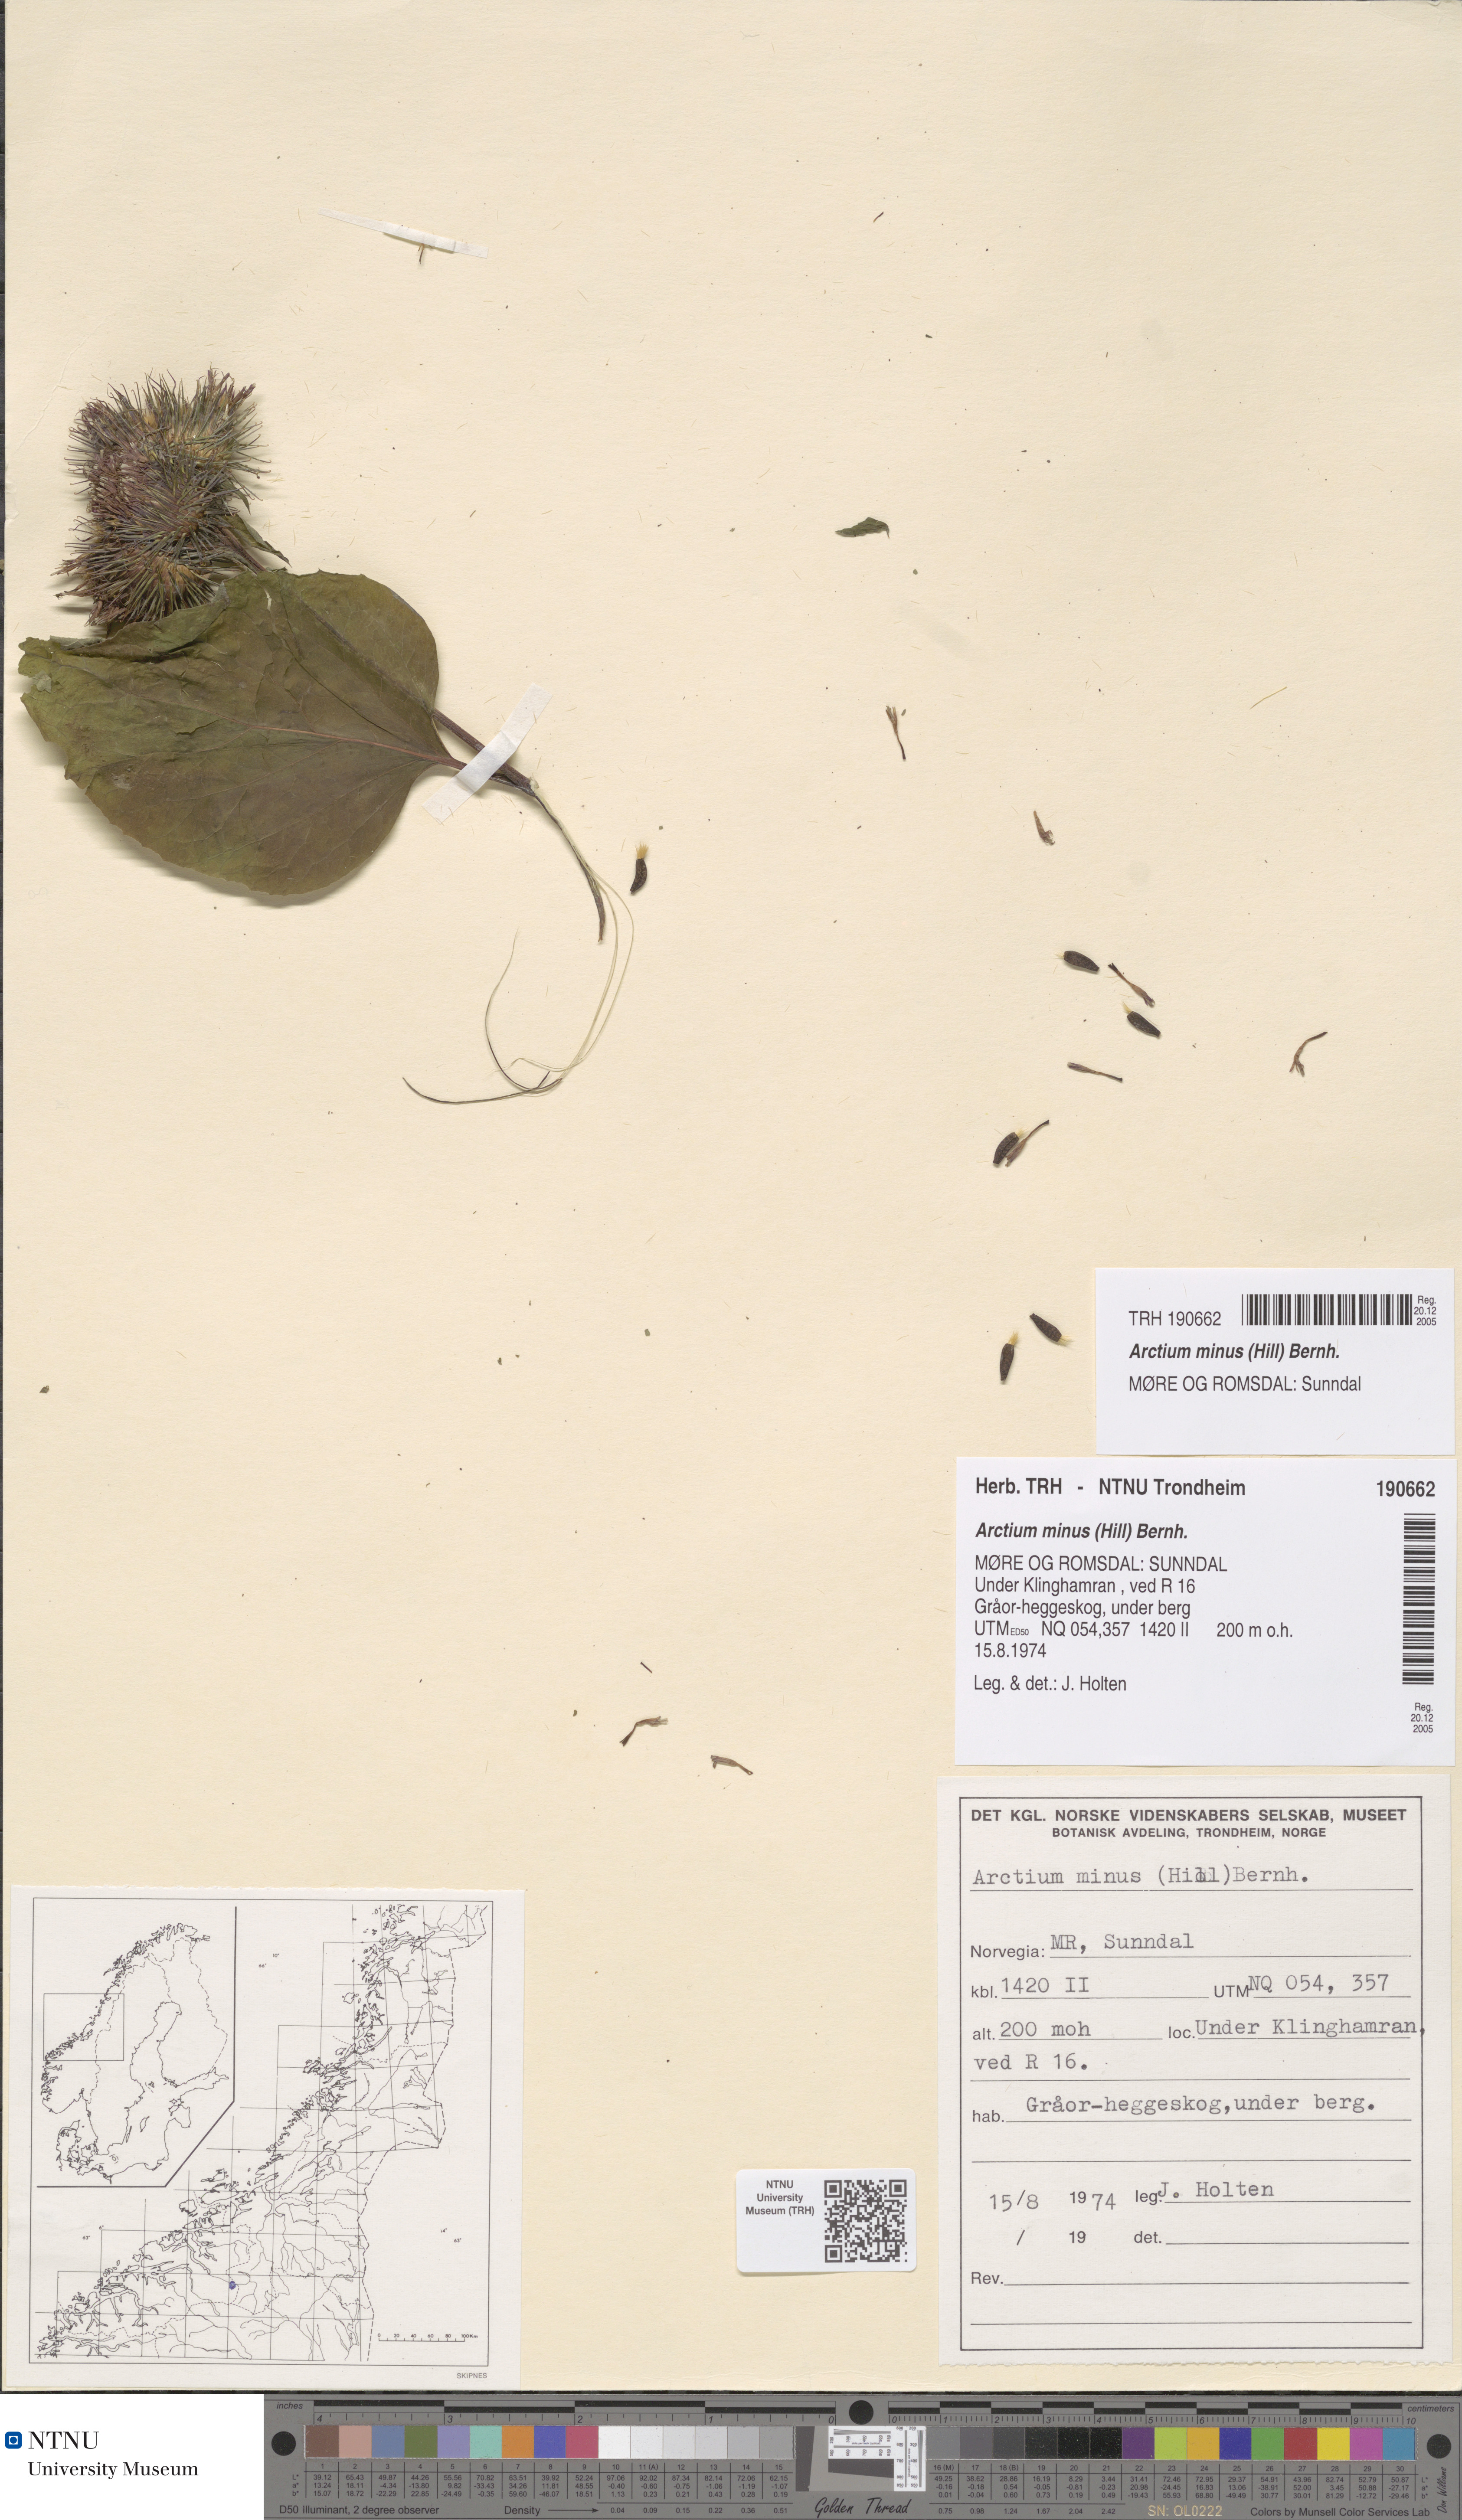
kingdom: Plantae
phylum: Tracheophyta
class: Magnoliopsida
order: Asterales
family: Asteraceae
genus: Arctium
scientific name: Arctium minus
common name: Lesser burdock
